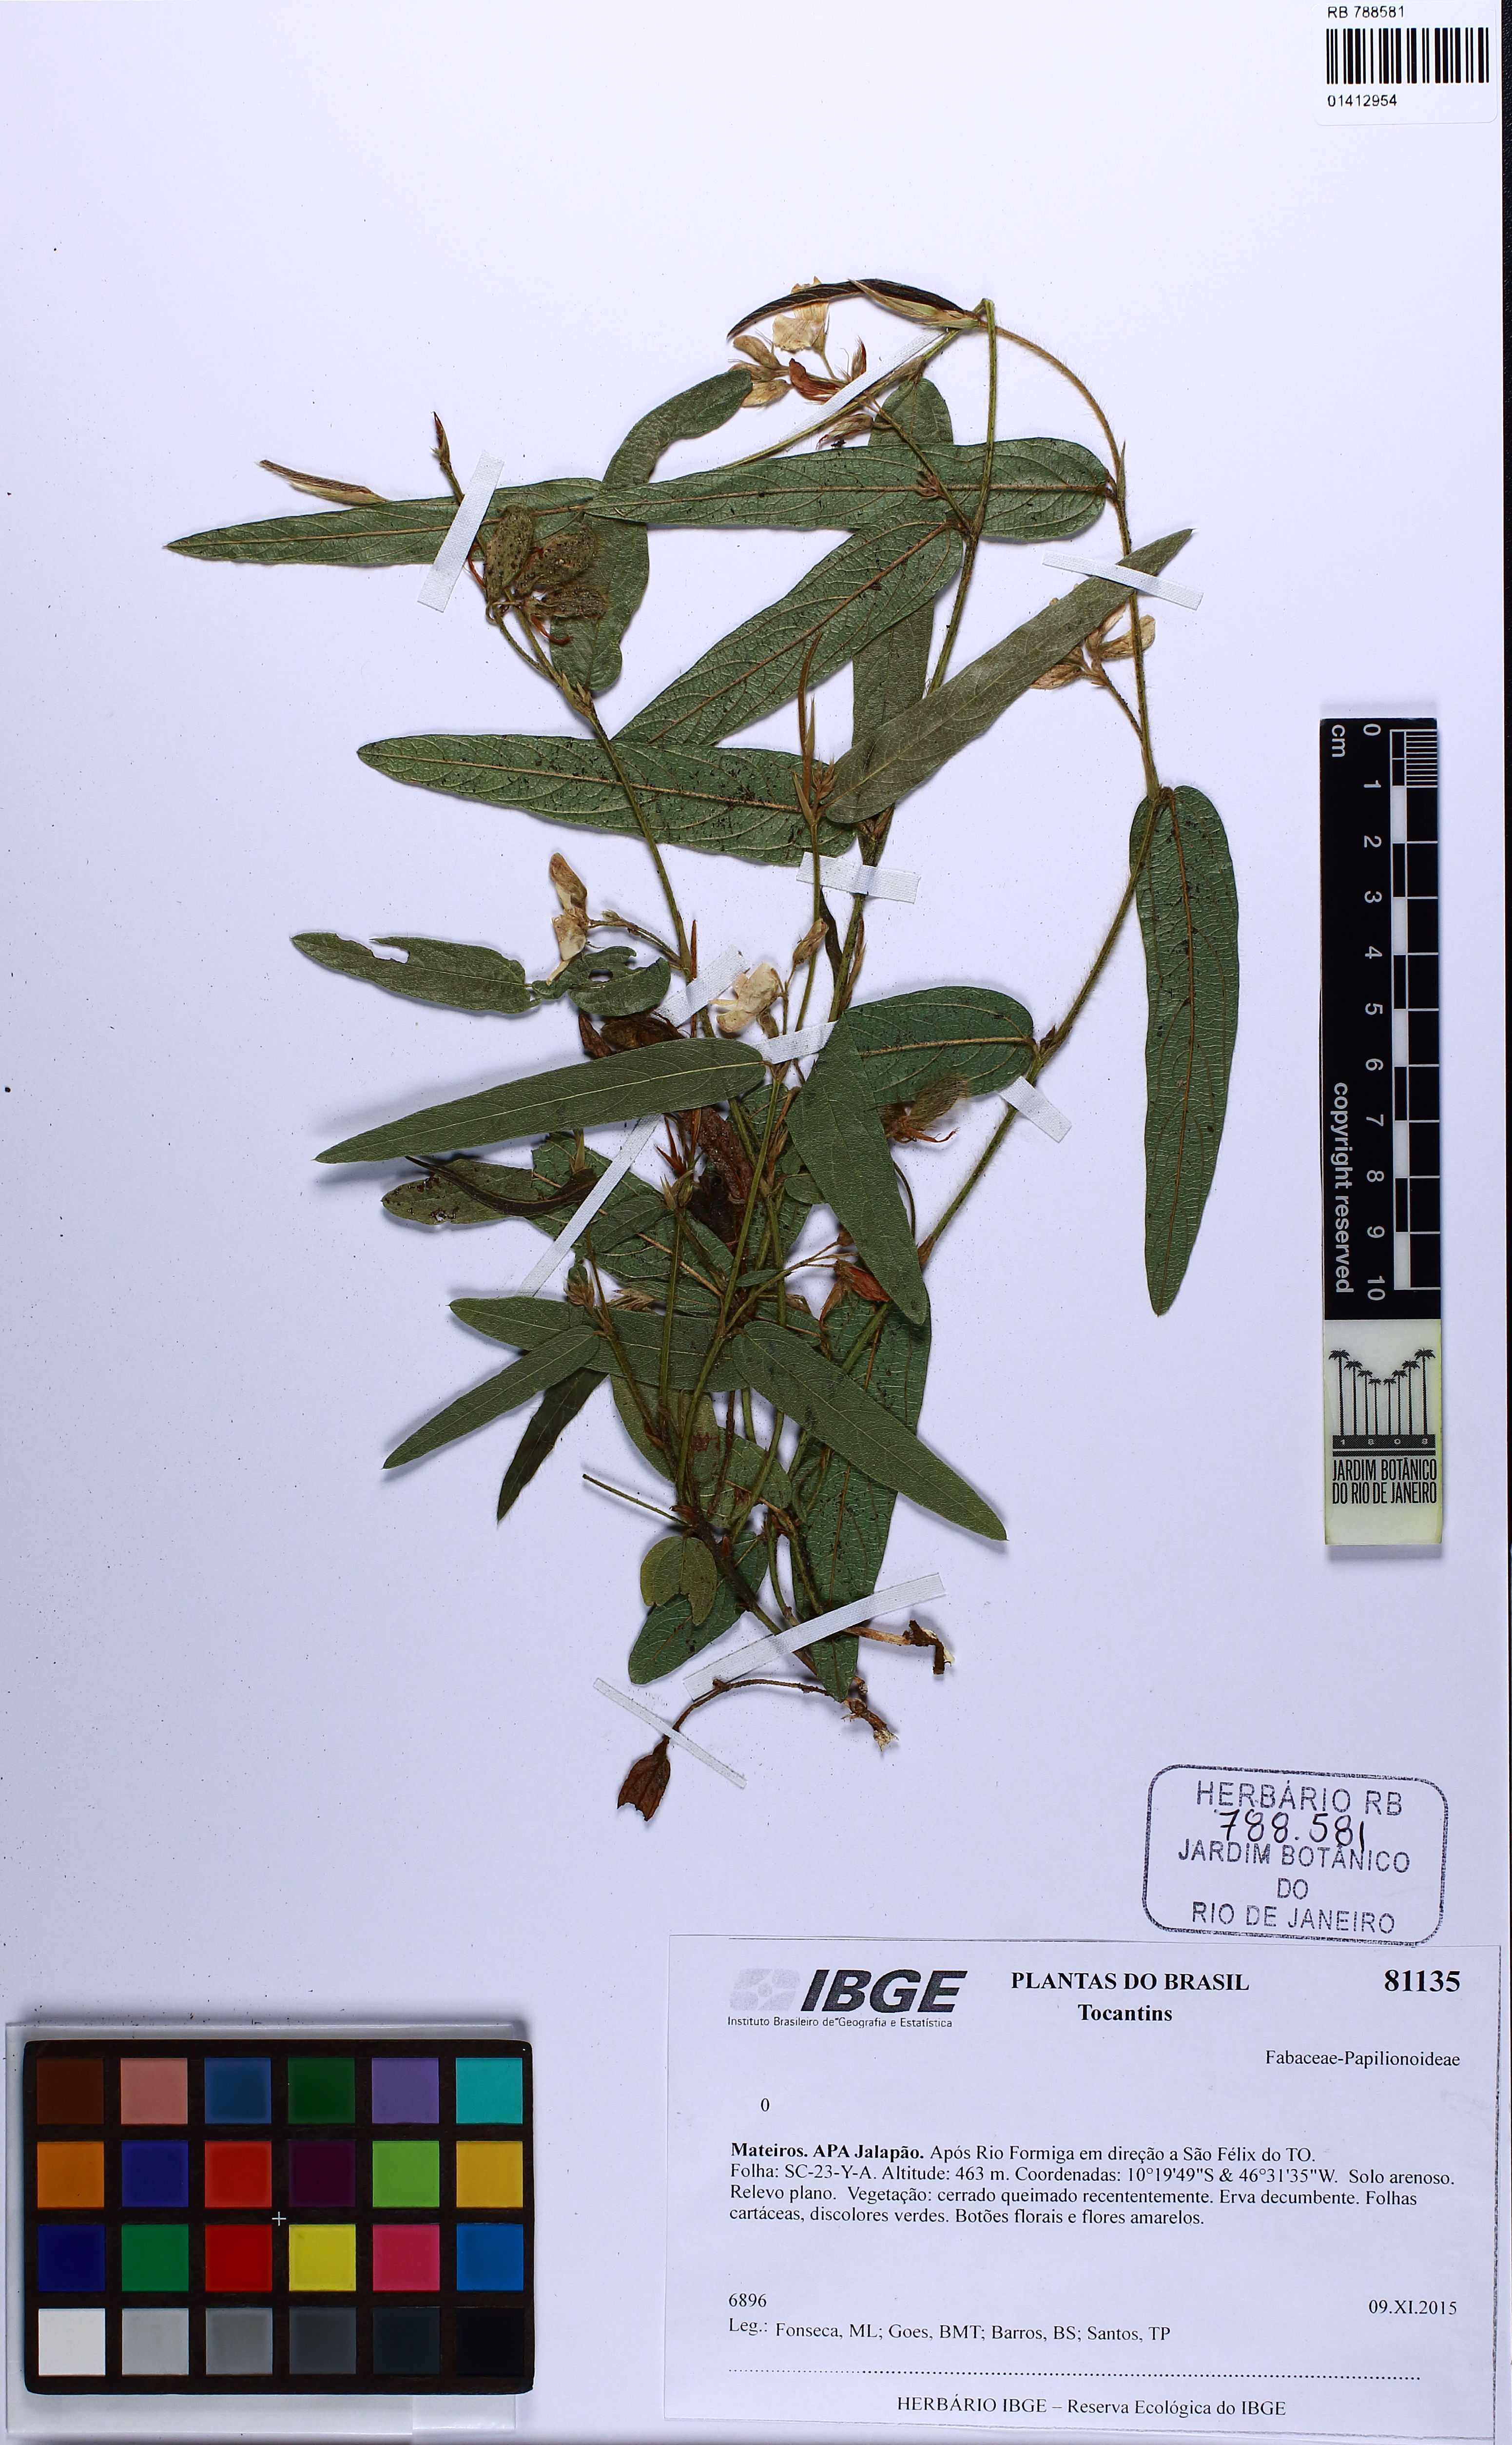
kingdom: Plantae
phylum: Tracheophyta
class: Magnoliopsida
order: Fabales
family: Fabaceae
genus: Eriosema
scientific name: Eriosema simplicifolium
